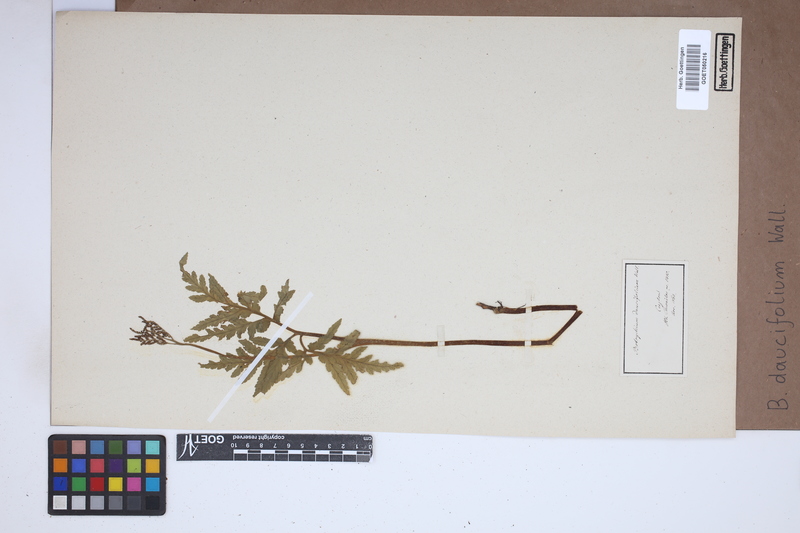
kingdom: Plantae
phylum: Tracheophyta
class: Polypodiopsida
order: Ophioglossales
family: Ophioglossaceae
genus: Sceptridium
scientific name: Sceptridium daucifolium
